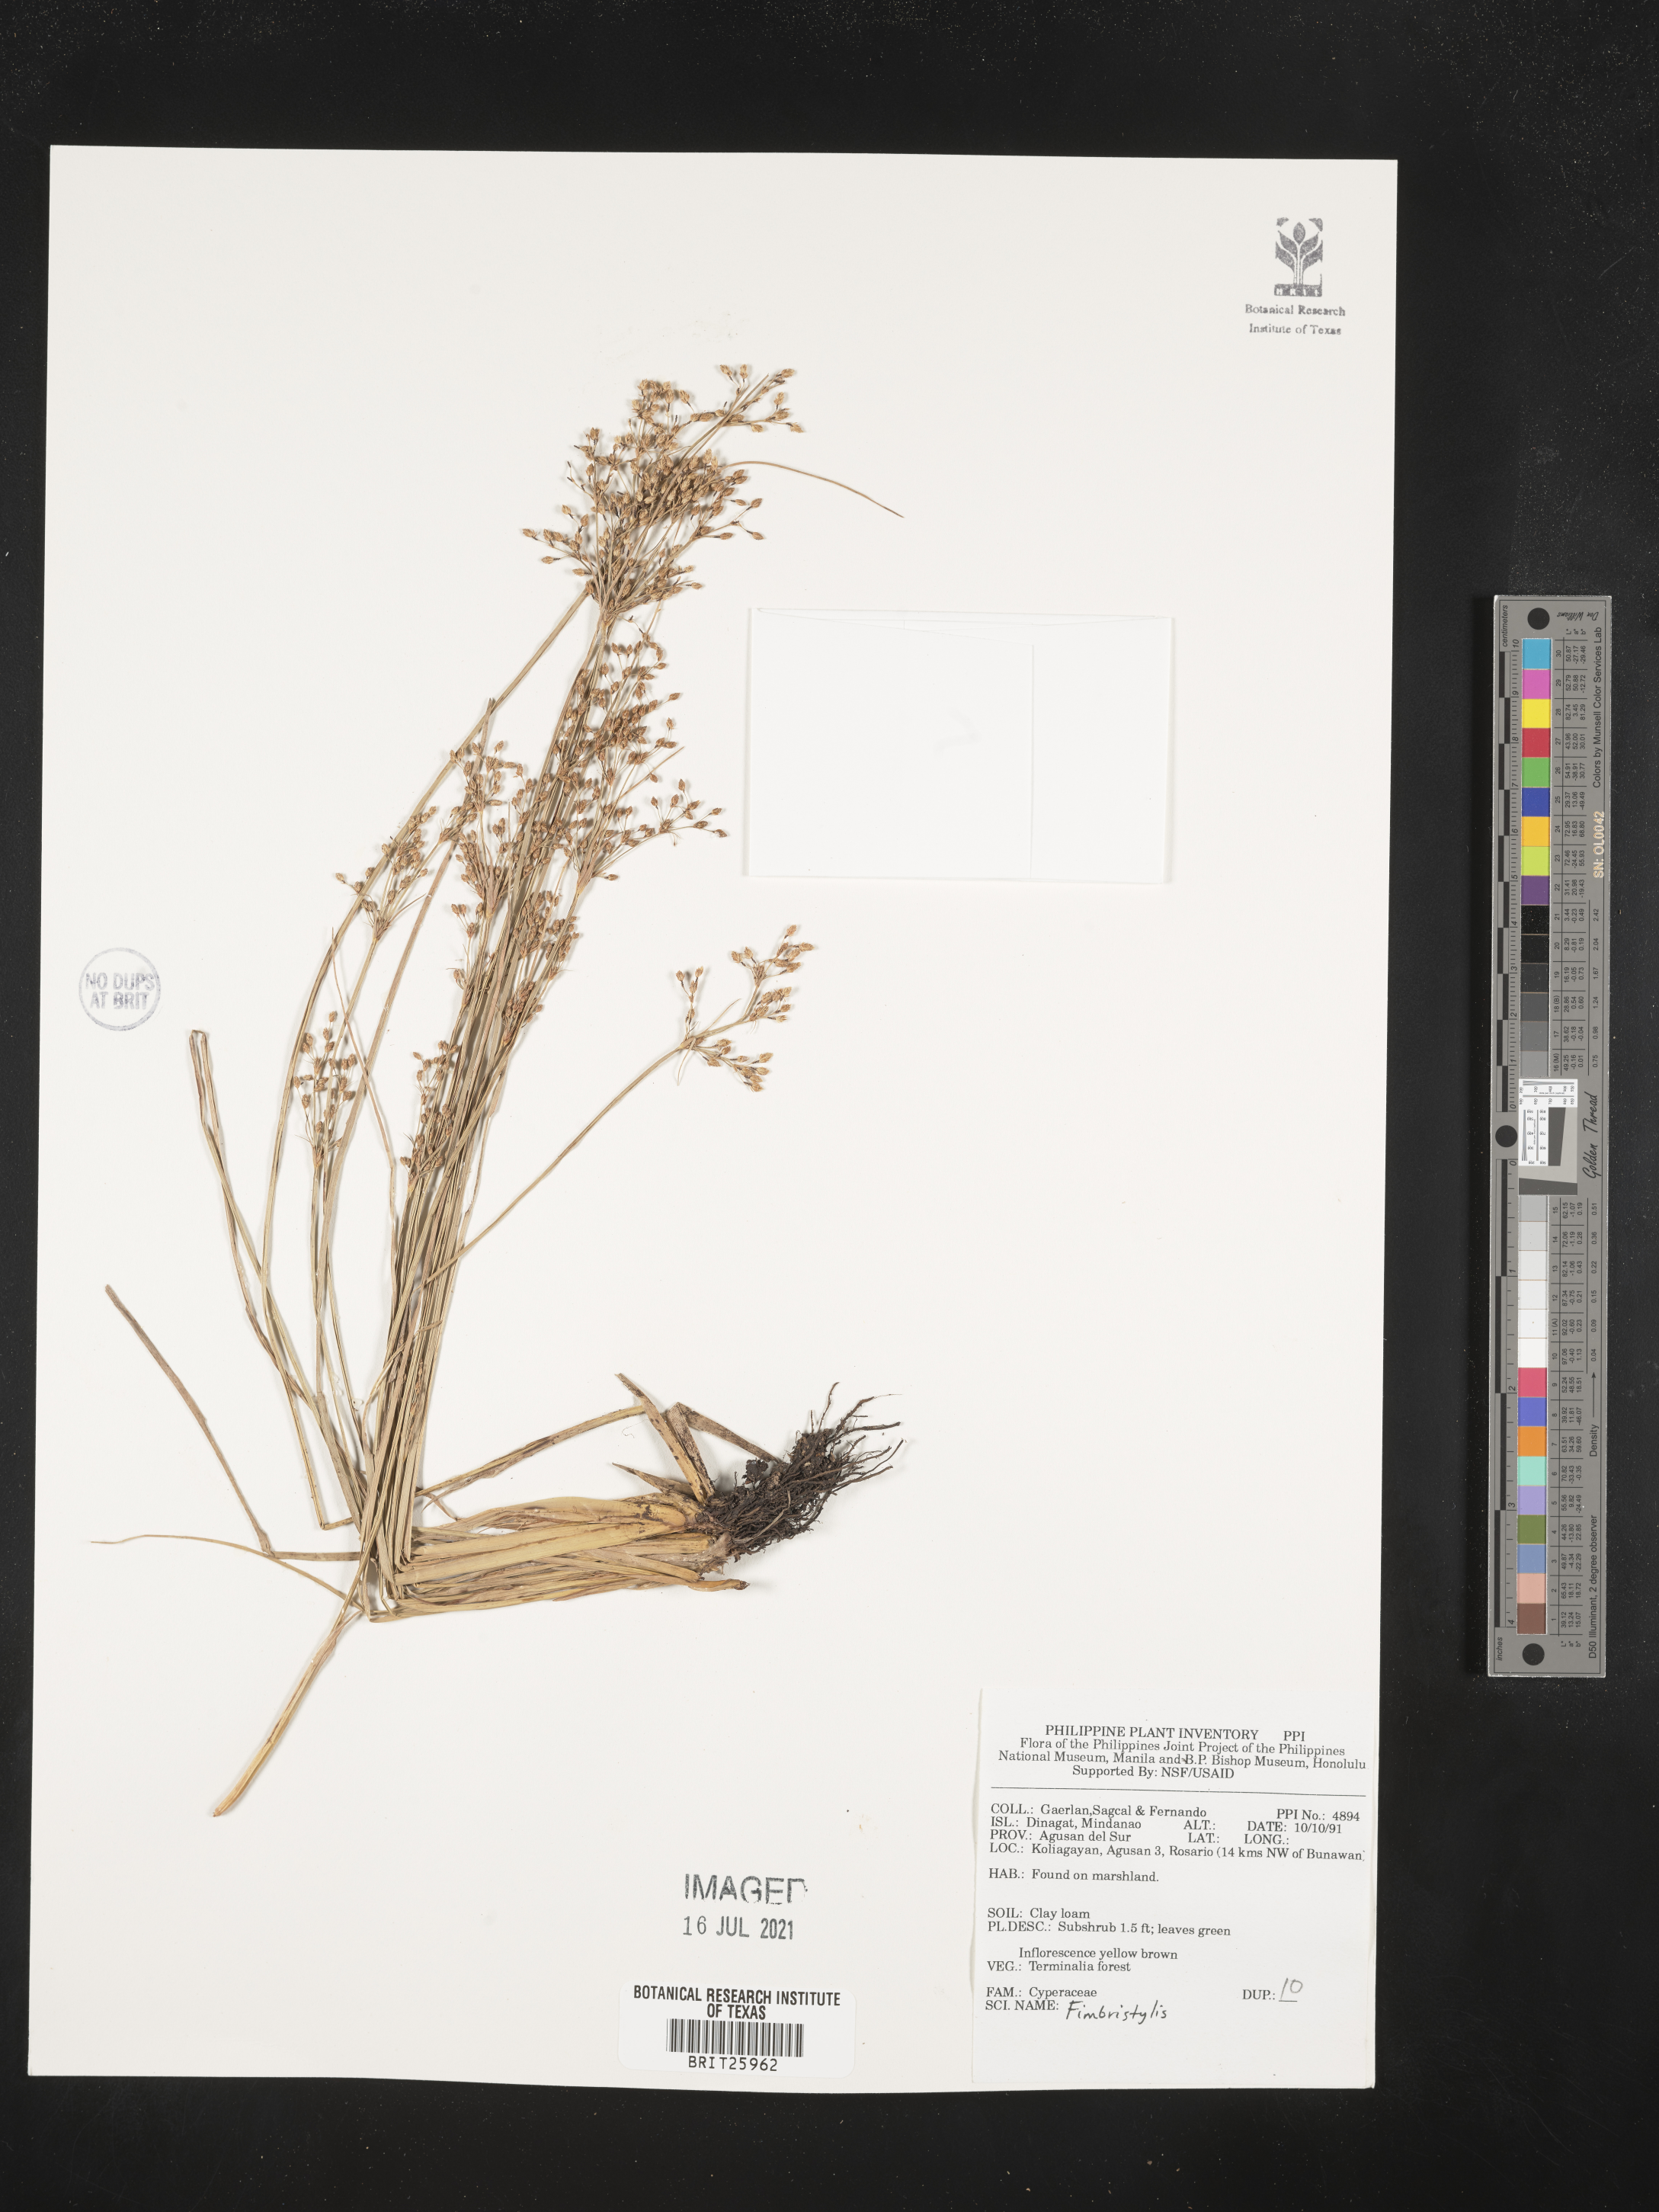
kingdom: Plantae
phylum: Tracheophyta
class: Liliopsida
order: Poales
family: Cyperaceae
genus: Fimbristylis
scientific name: Fimbristylis
